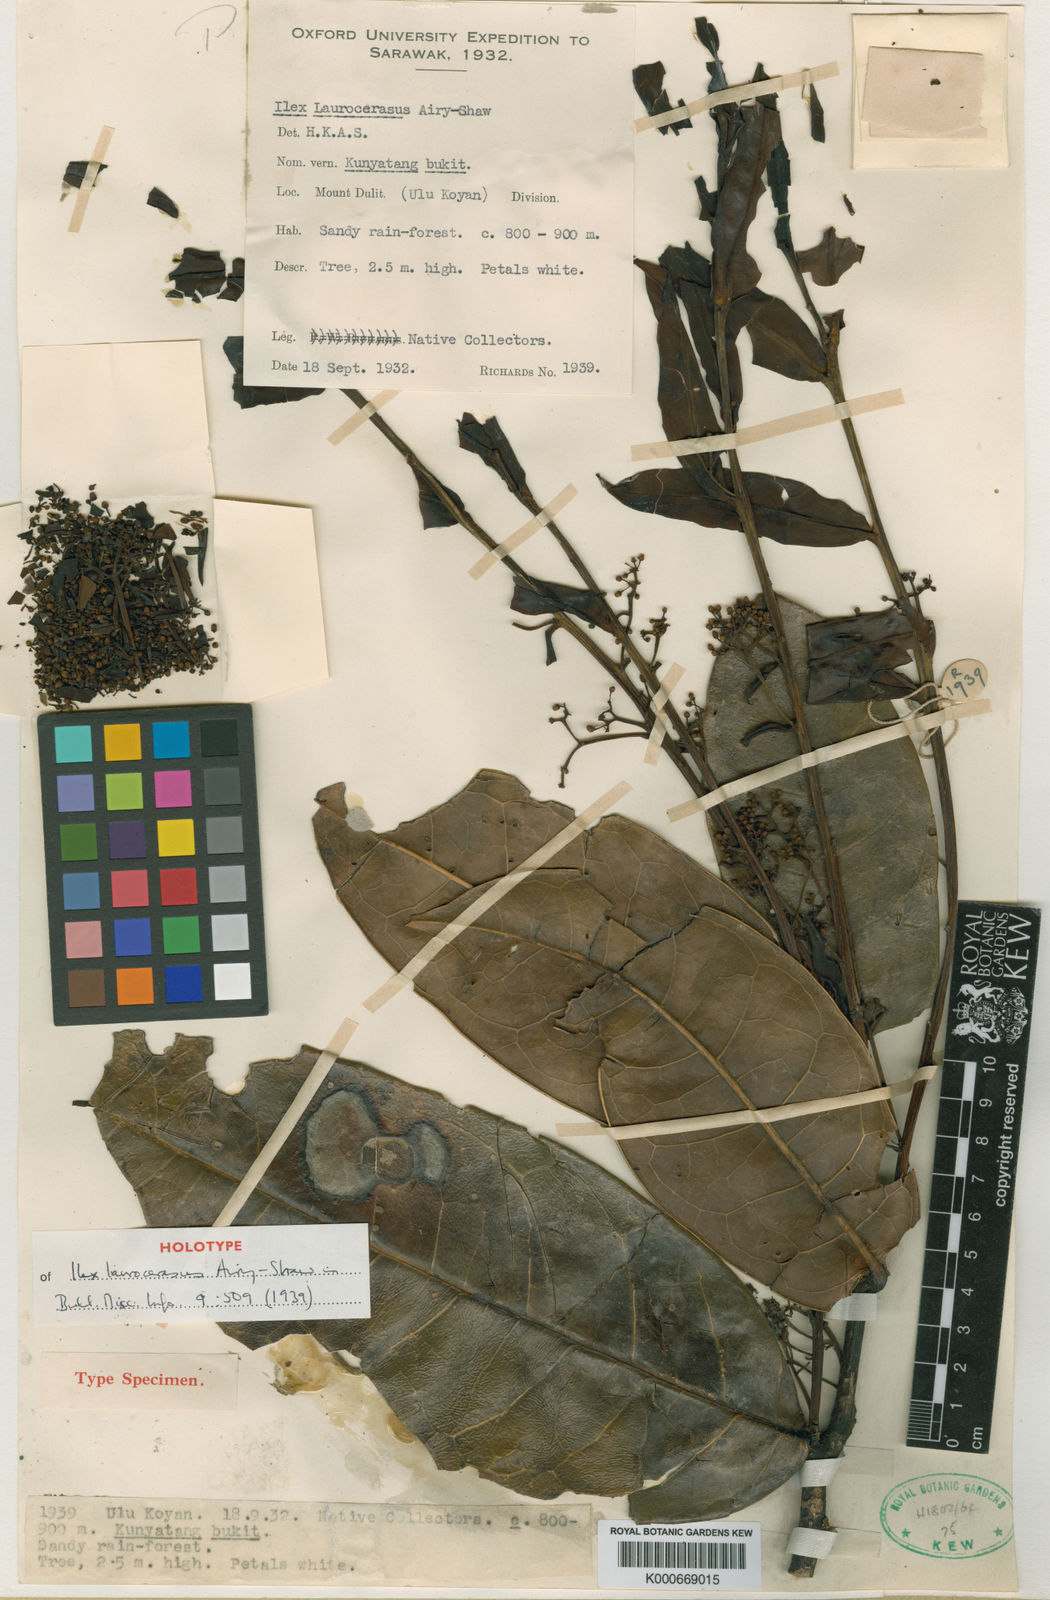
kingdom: Plantae
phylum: Tracheophyta
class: Magnoliopsida
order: Aquifoliales
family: Aquifoliaceae
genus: Ilex
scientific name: Ilex laurocensus
